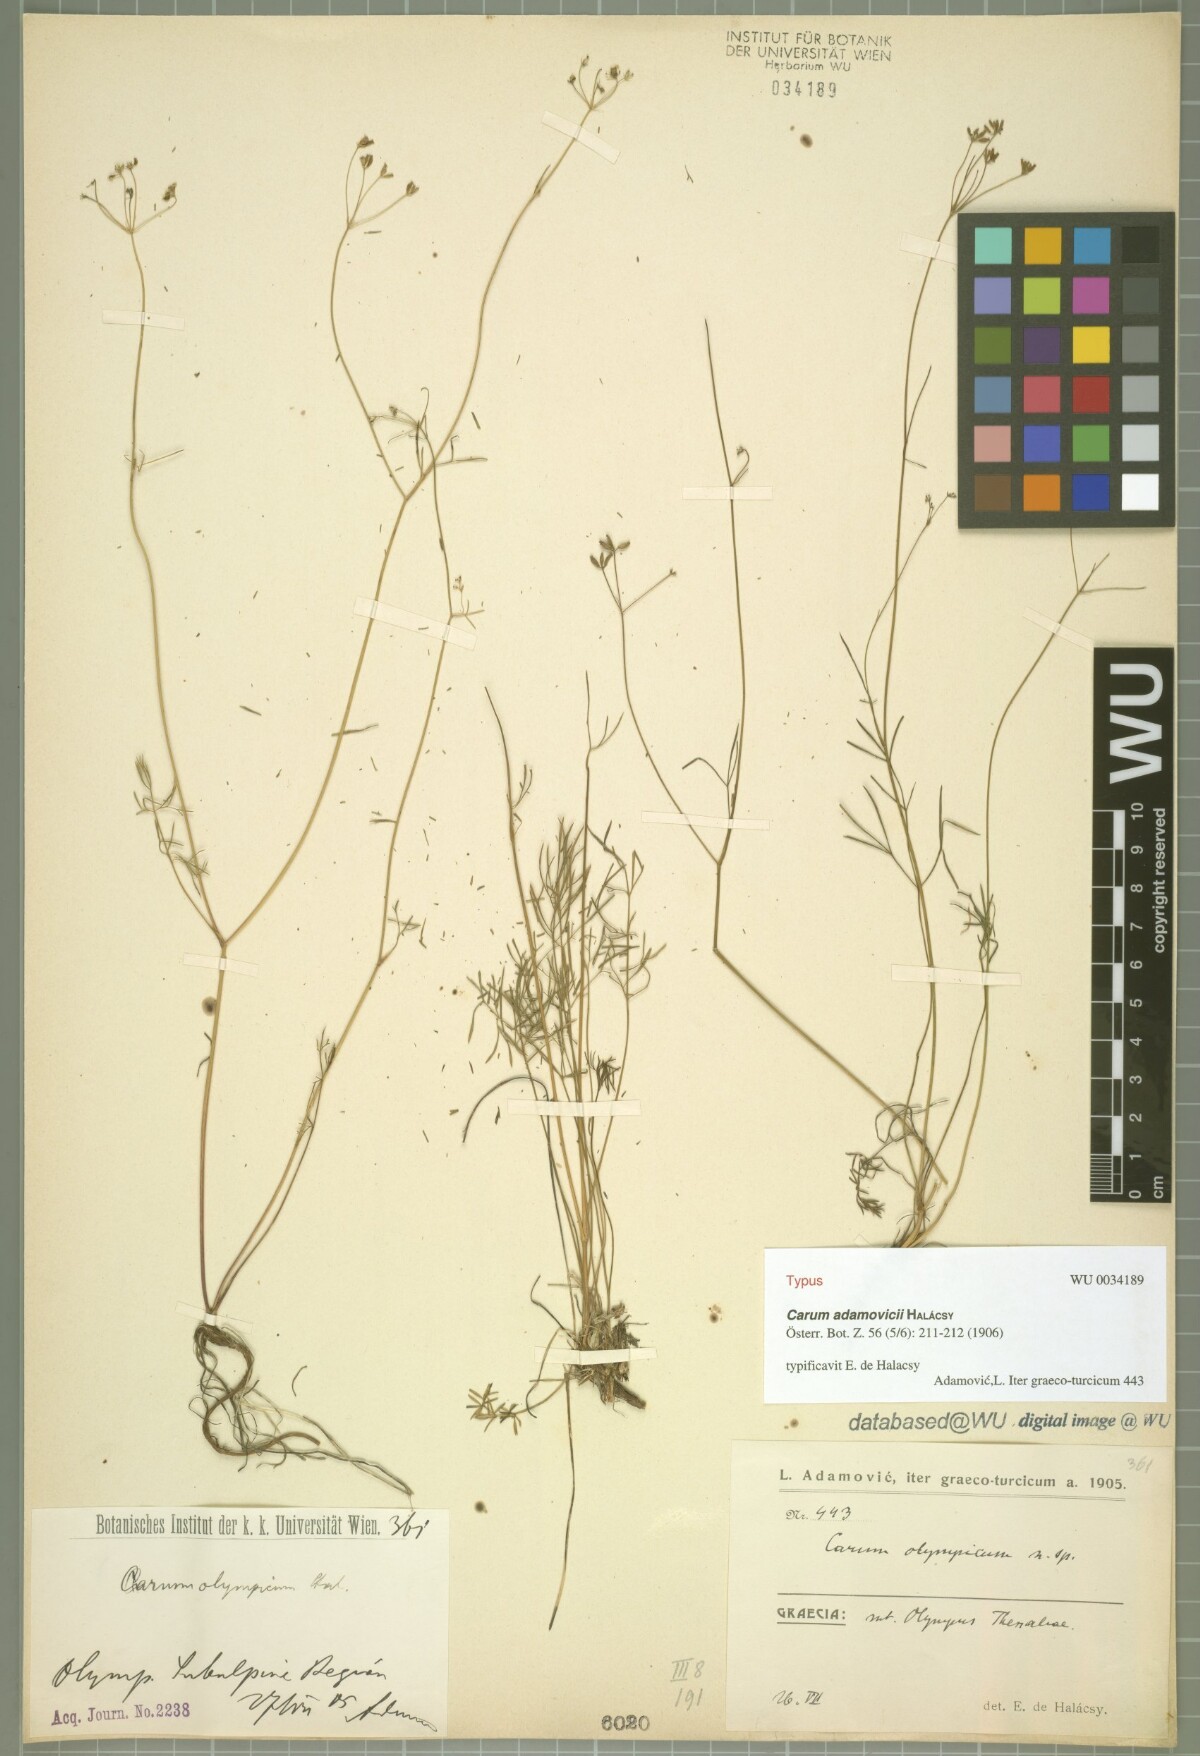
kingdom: Plantae
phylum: Tracheophyta
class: Magnoliopsida
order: Apiales
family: Apiaceae
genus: Carum
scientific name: Carum meoides
